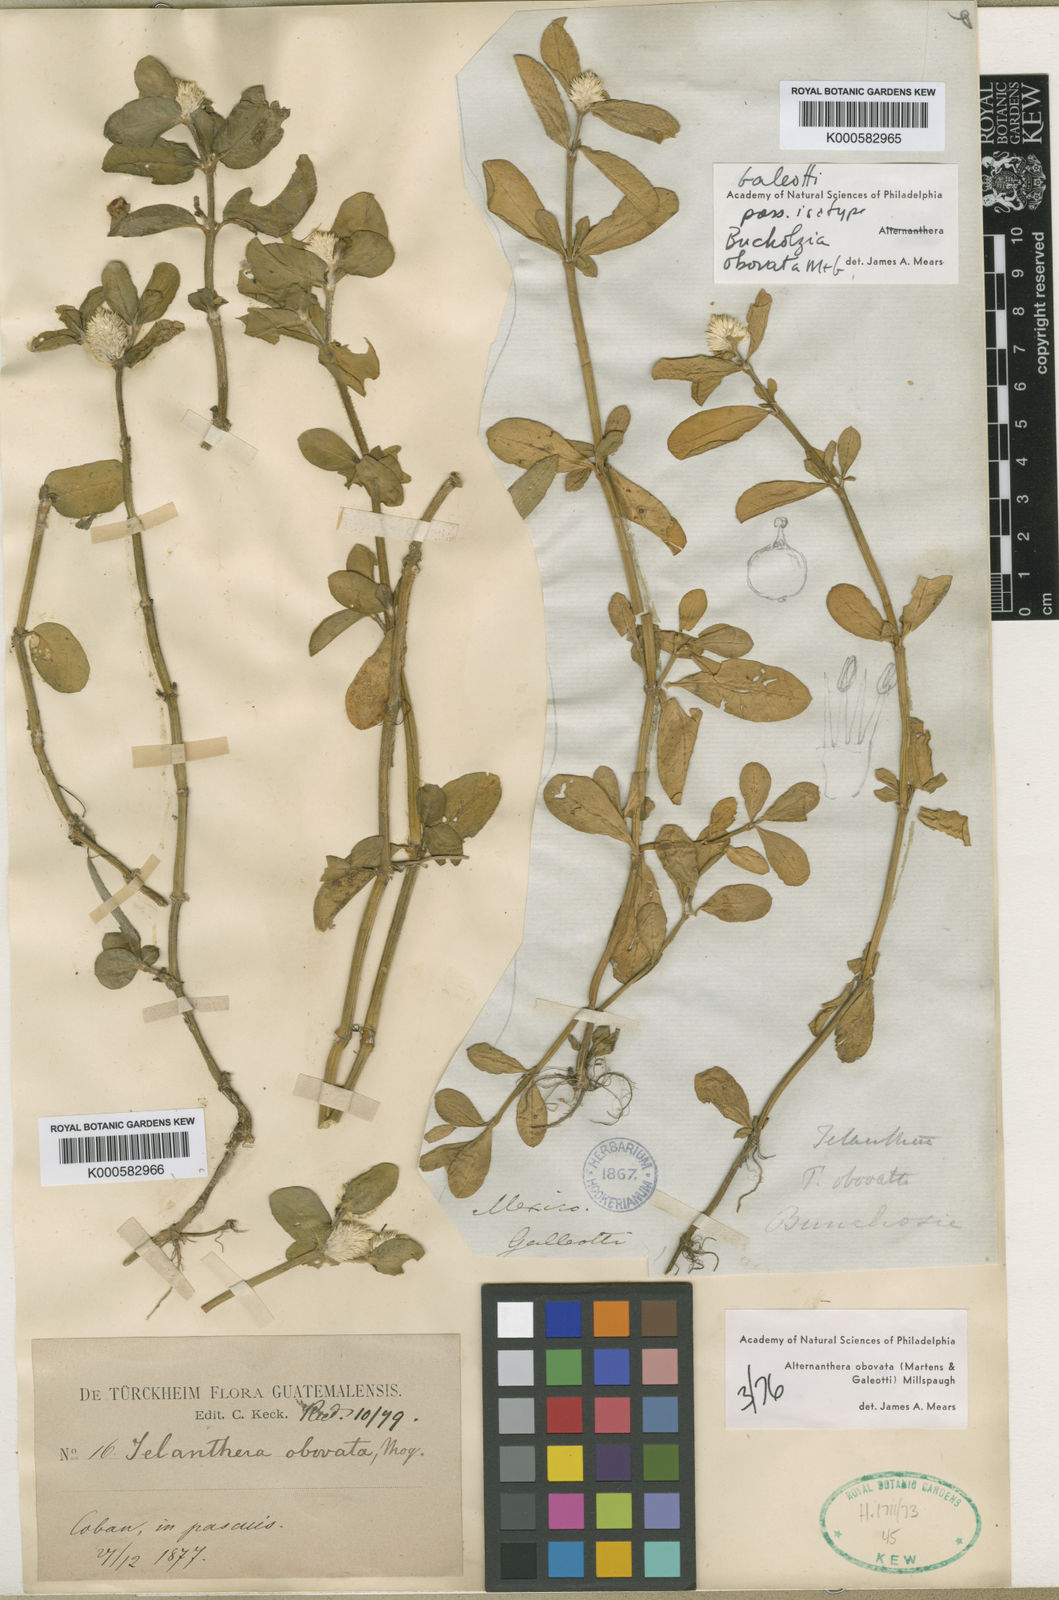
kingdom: Plantae
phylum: Tracheophyta
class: Magnoliopsida
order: Caryophyllales
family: Amaranthaceae
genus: Alternanthera
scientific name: Alternanthera obovata
